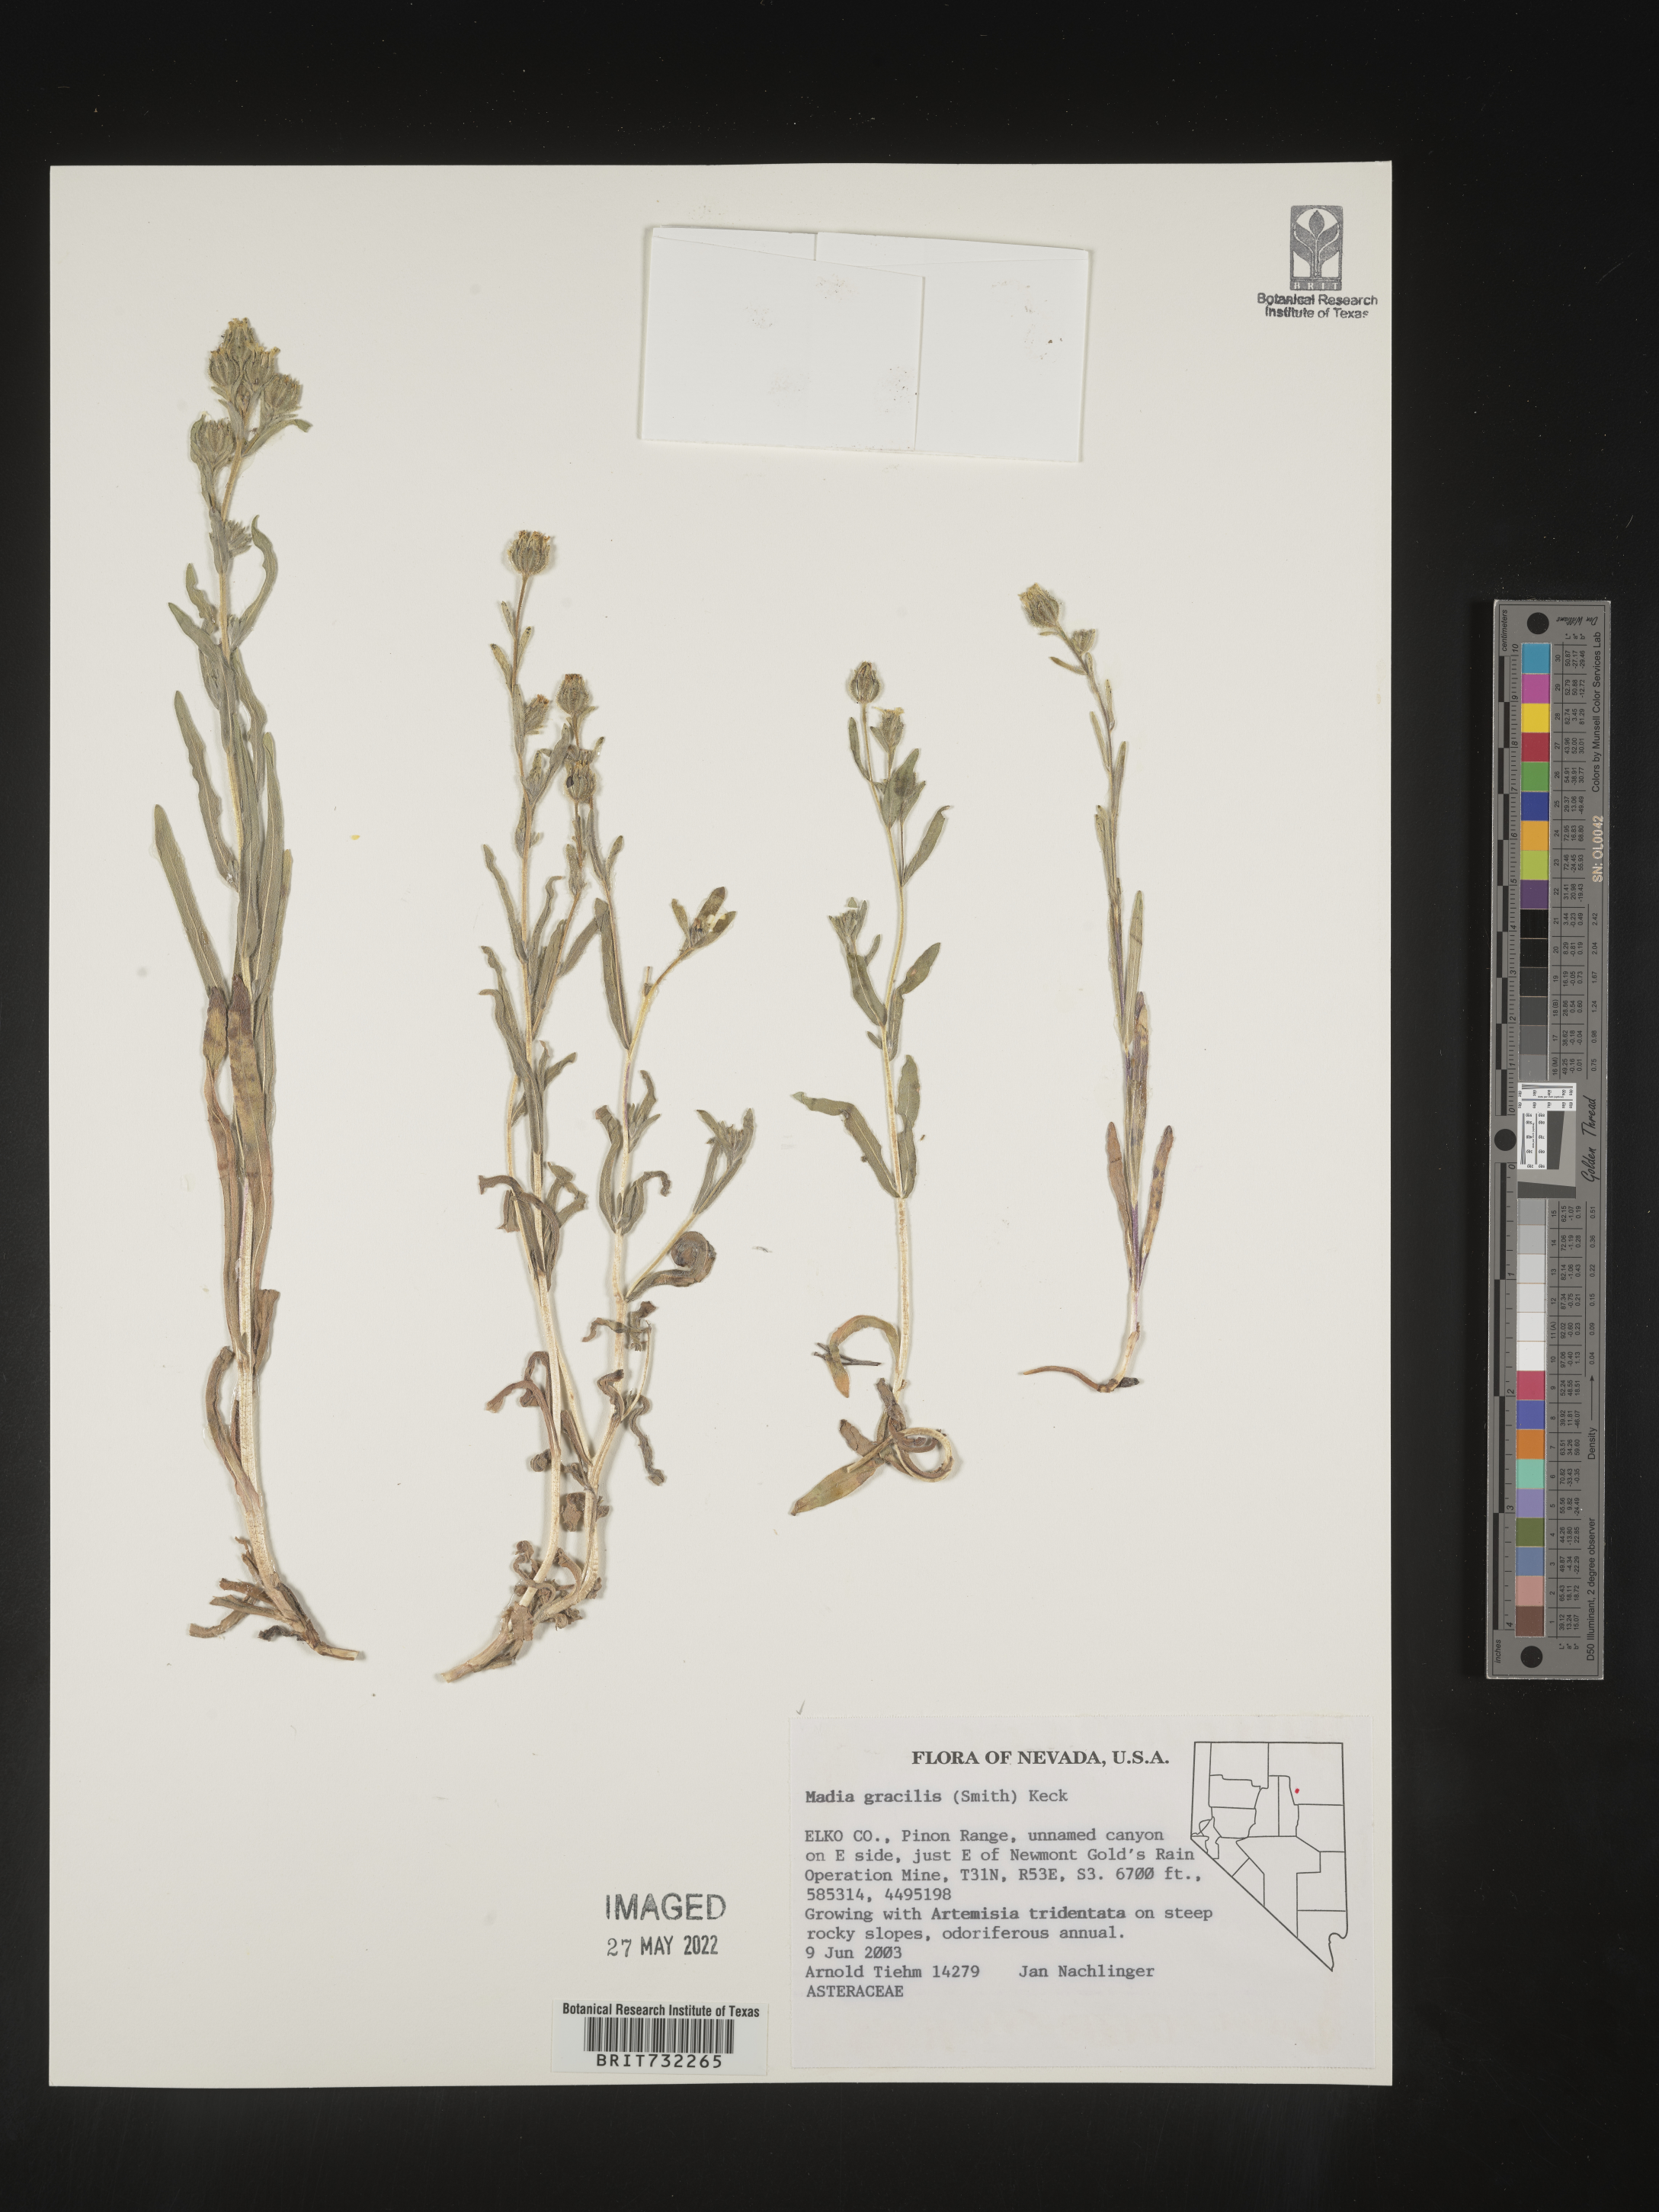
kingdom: Plantae
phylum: Tracheophyta
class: Magnoliopsida
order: Asterales
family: Asteraceae
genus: Madia
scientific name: Madia gracilis
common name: Grassy tarweed
